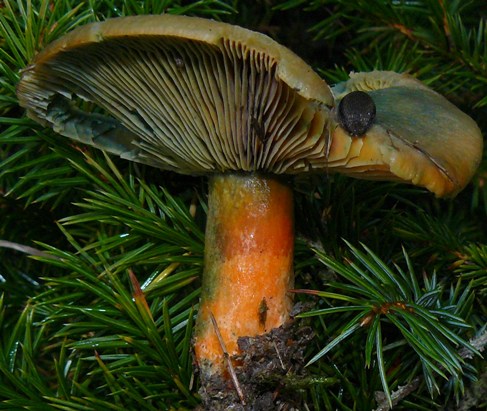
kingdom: Fungi
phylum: Basidiomycota
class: Agaricomycetes
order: Russulales
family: Russulaceae
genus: Lactarius
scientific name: Lactarius deterrimus
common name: gran-mælkehat
